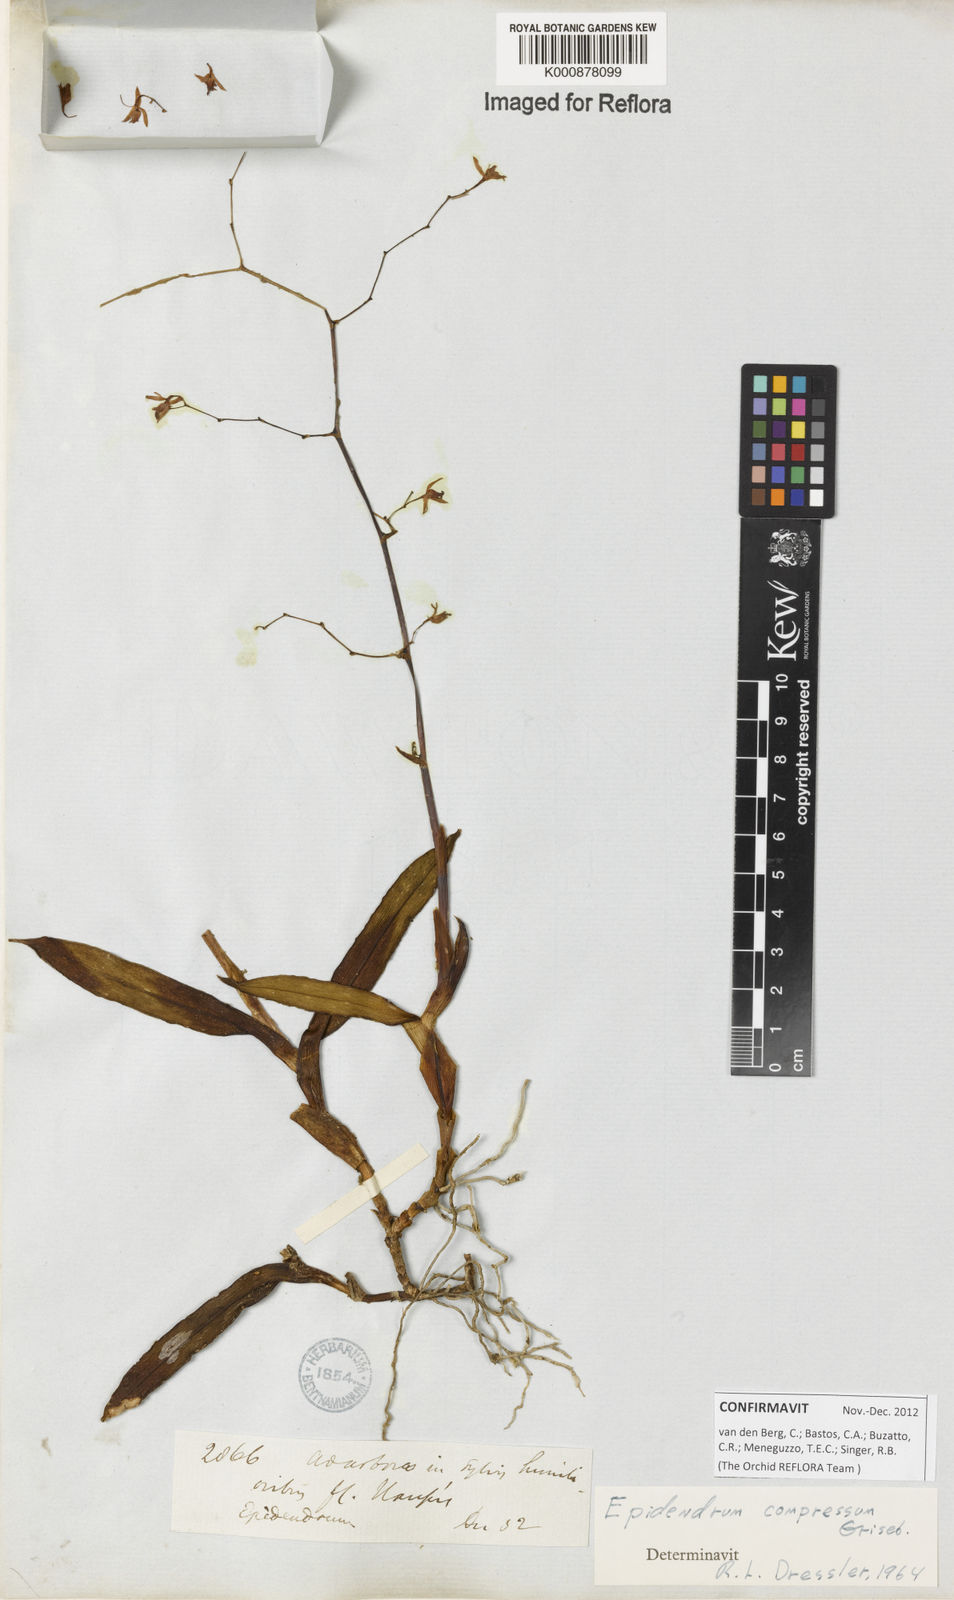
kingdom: Plantae
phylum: Tracheophyta
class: Liliopsida
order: Asparagales
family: Orchidaceae
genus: Epidendrum
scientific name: Epidendrum compressum
